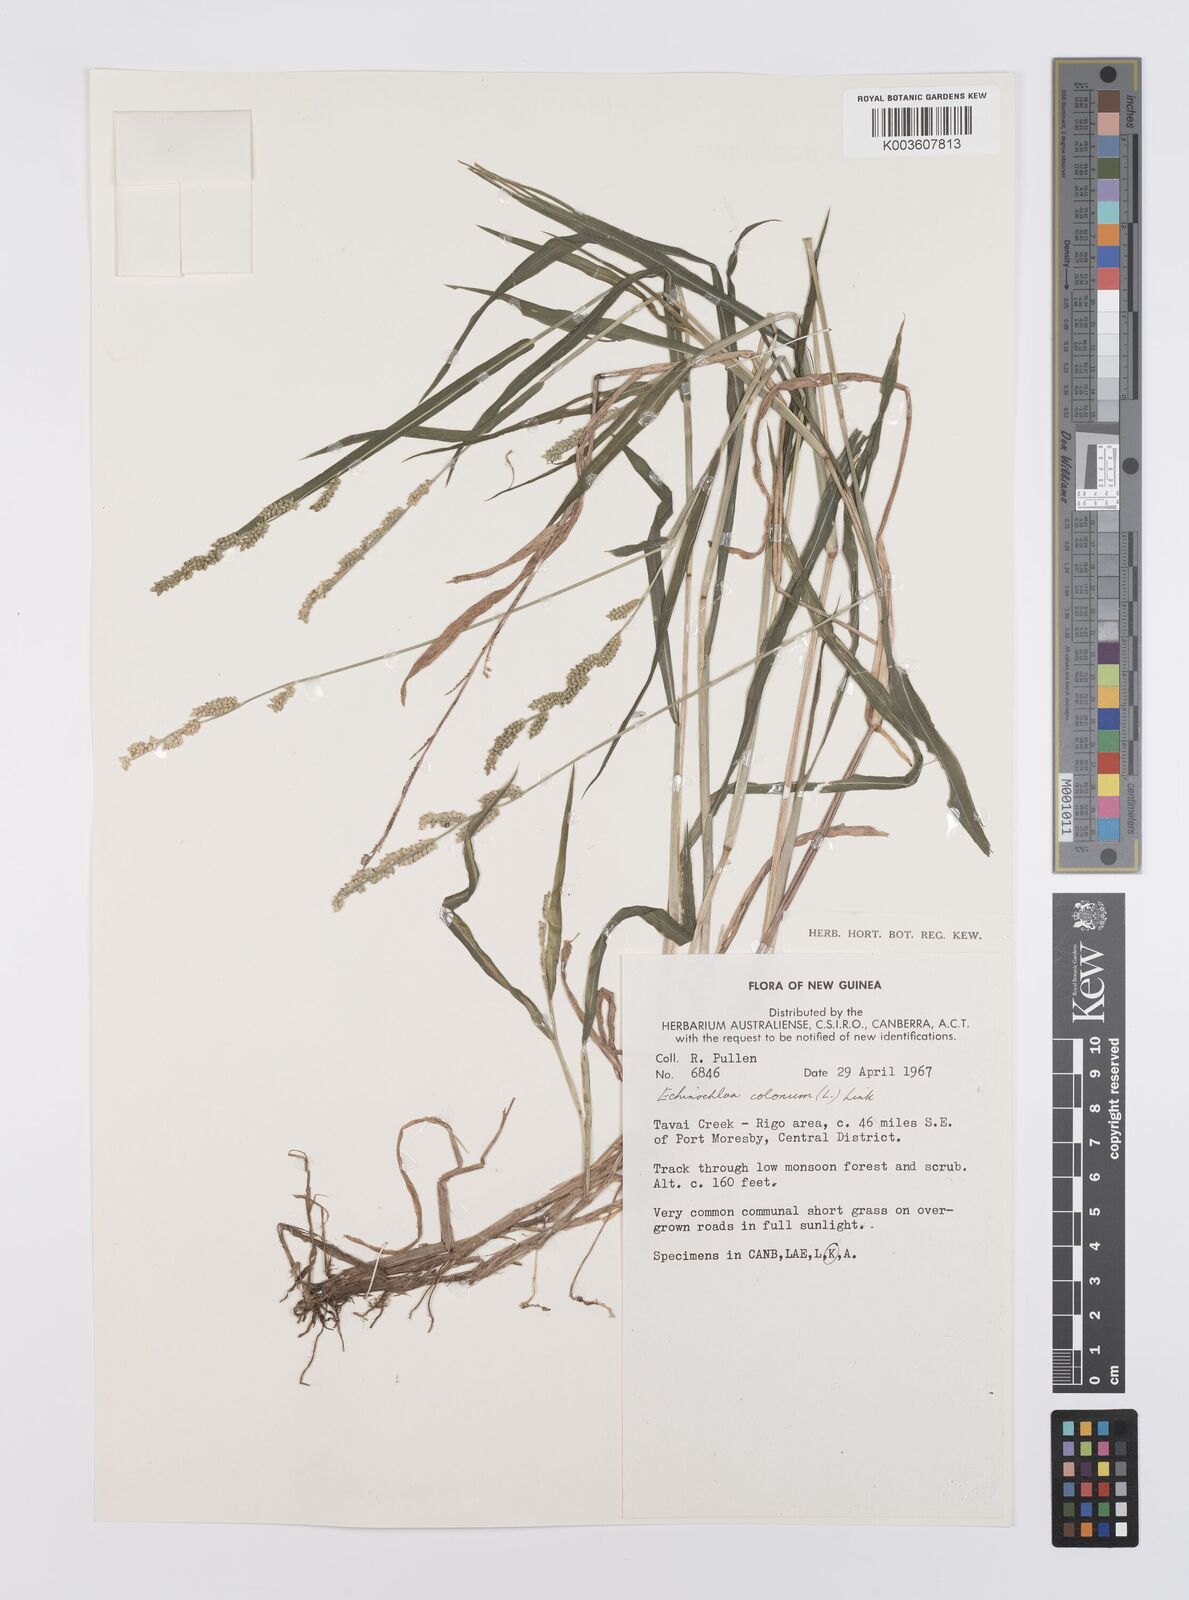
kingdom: Plantae
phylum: Tracheophyta
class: Liliopsida
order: Poales
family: Poaceae
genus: Echinochloa
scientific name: Echinochloa colonum
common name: Jungle rice
